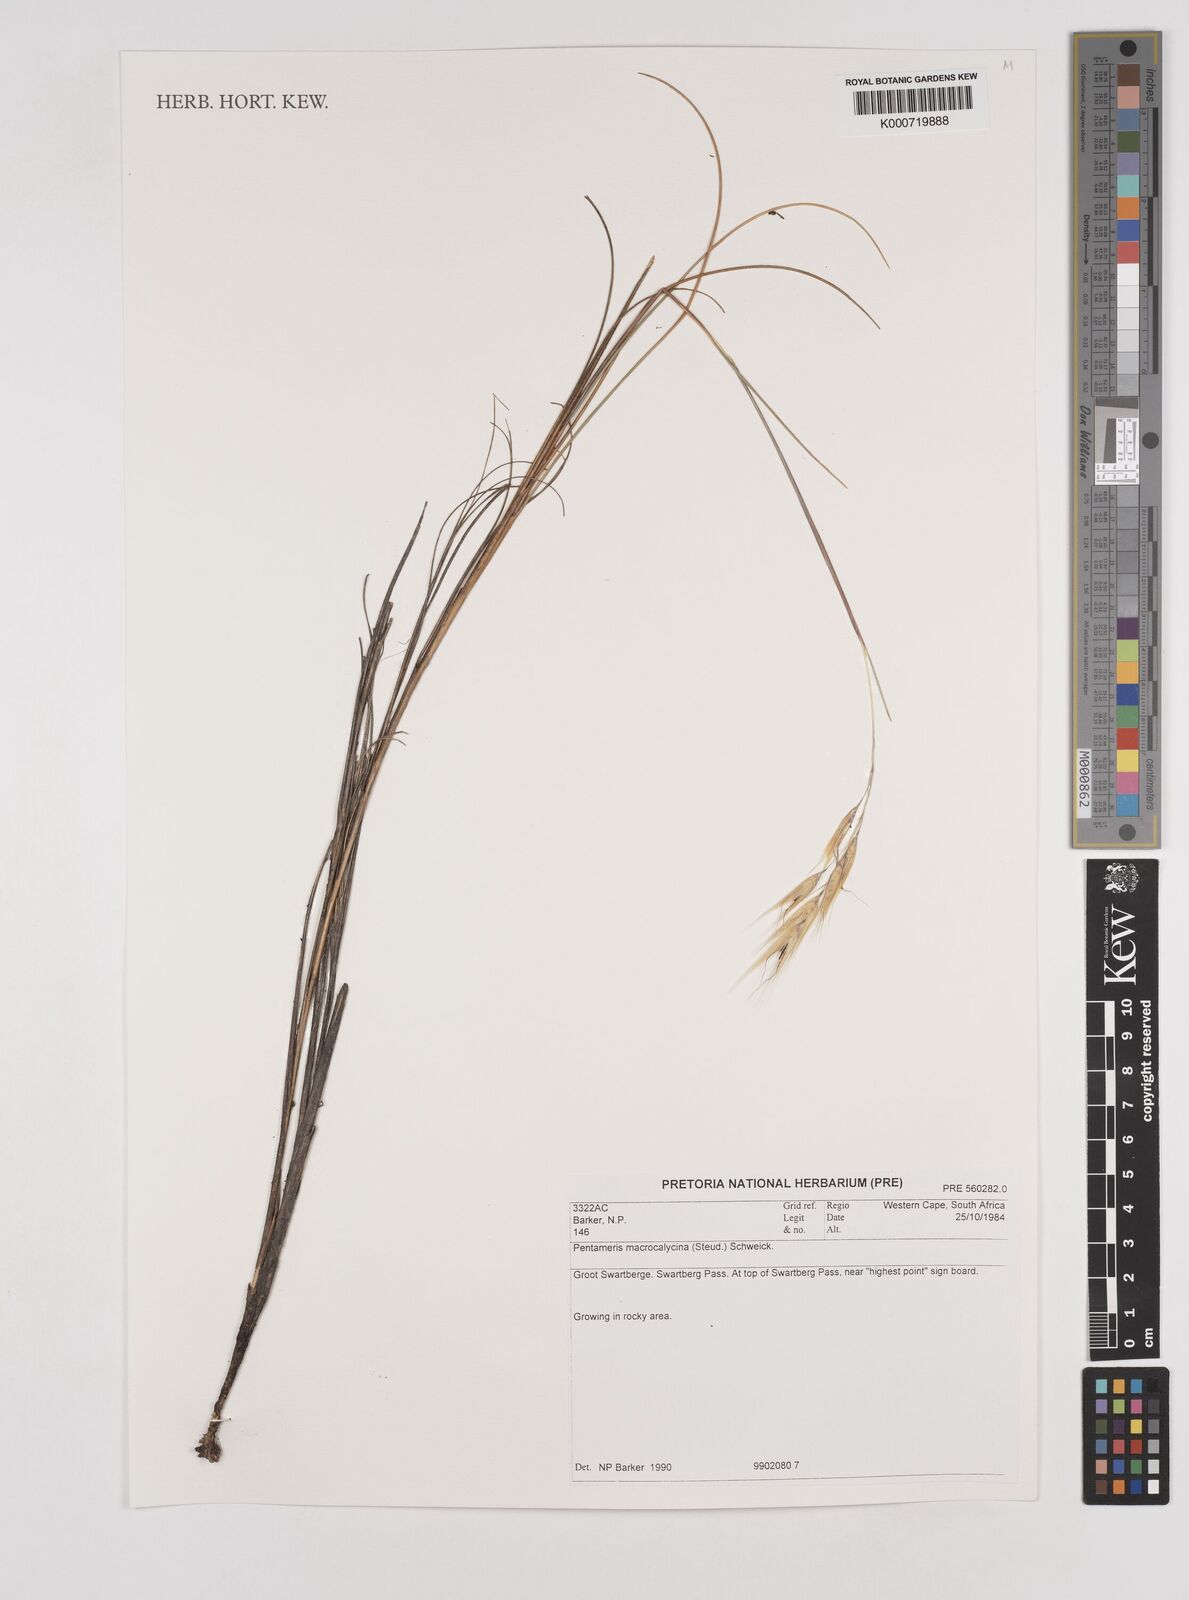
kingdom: Plantae
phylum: Tracheophyta
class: Liliopsida
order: Poales
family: Poaceae
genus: Pentameris
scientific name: Pentameris macrocalycina
